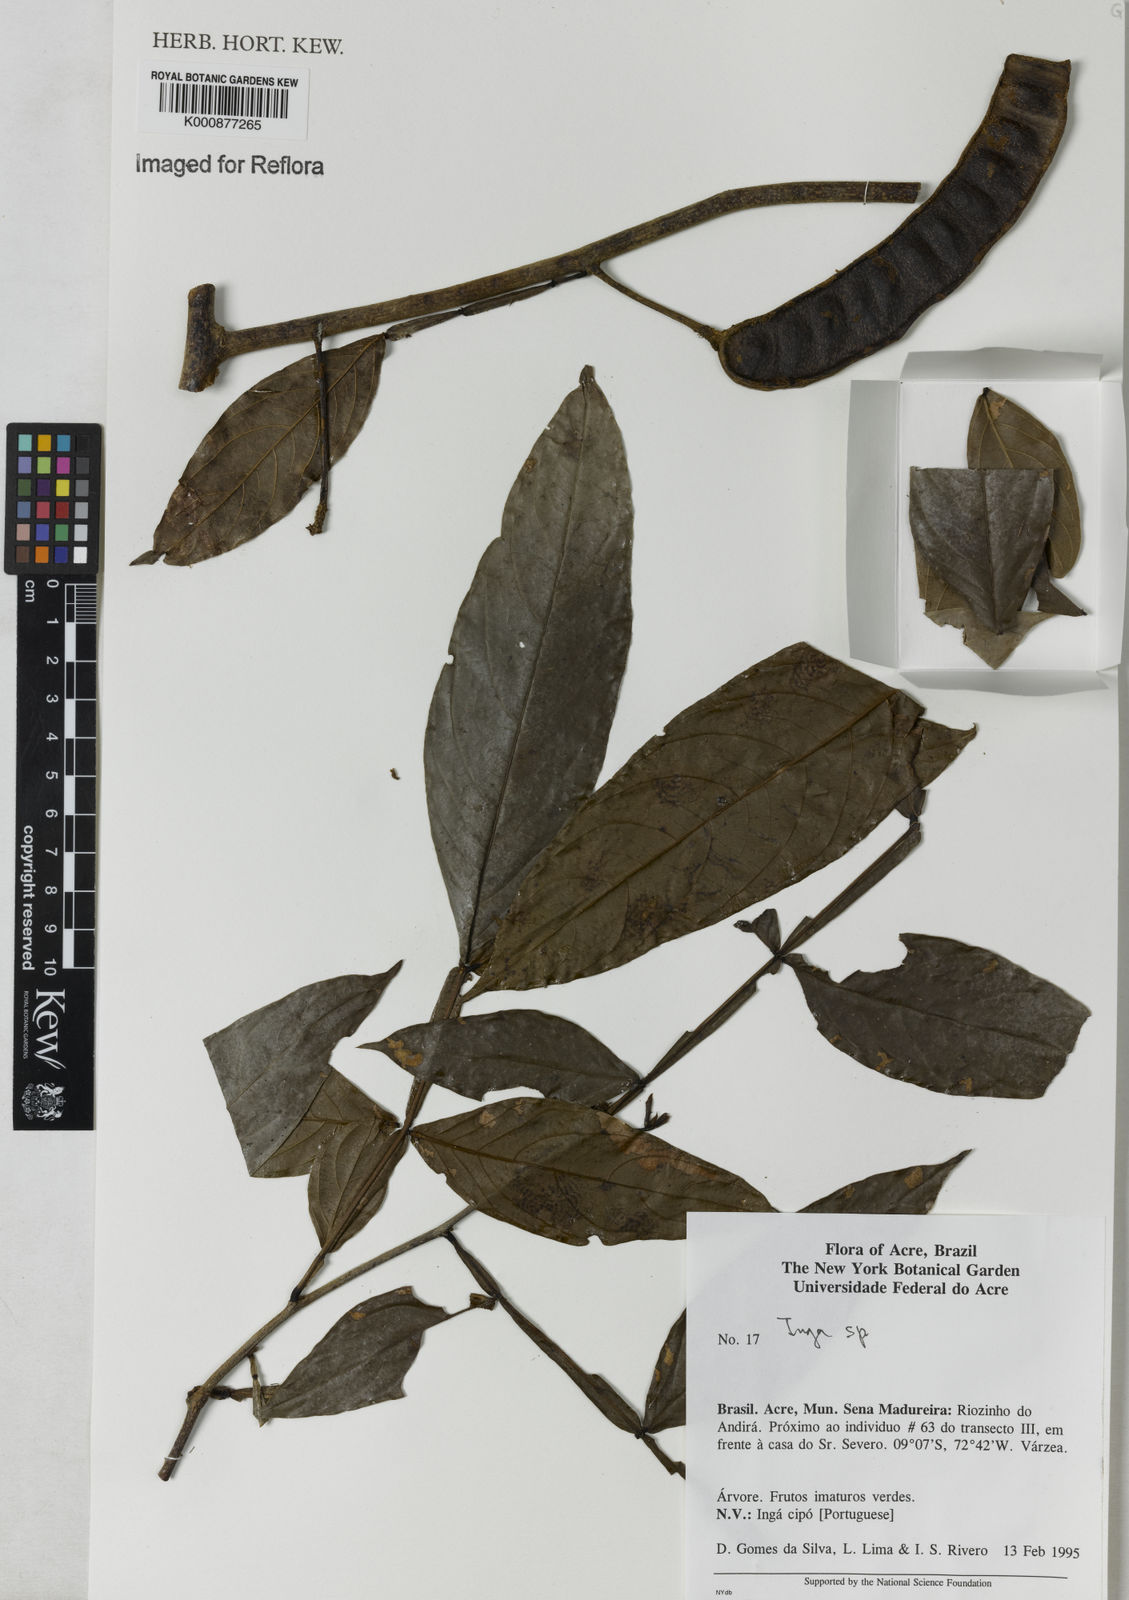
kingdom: Plantae
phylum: Tracheophyta
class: Magnoliopsida
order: Fabales
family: Fabaceae
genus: Inga
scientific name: Inga
